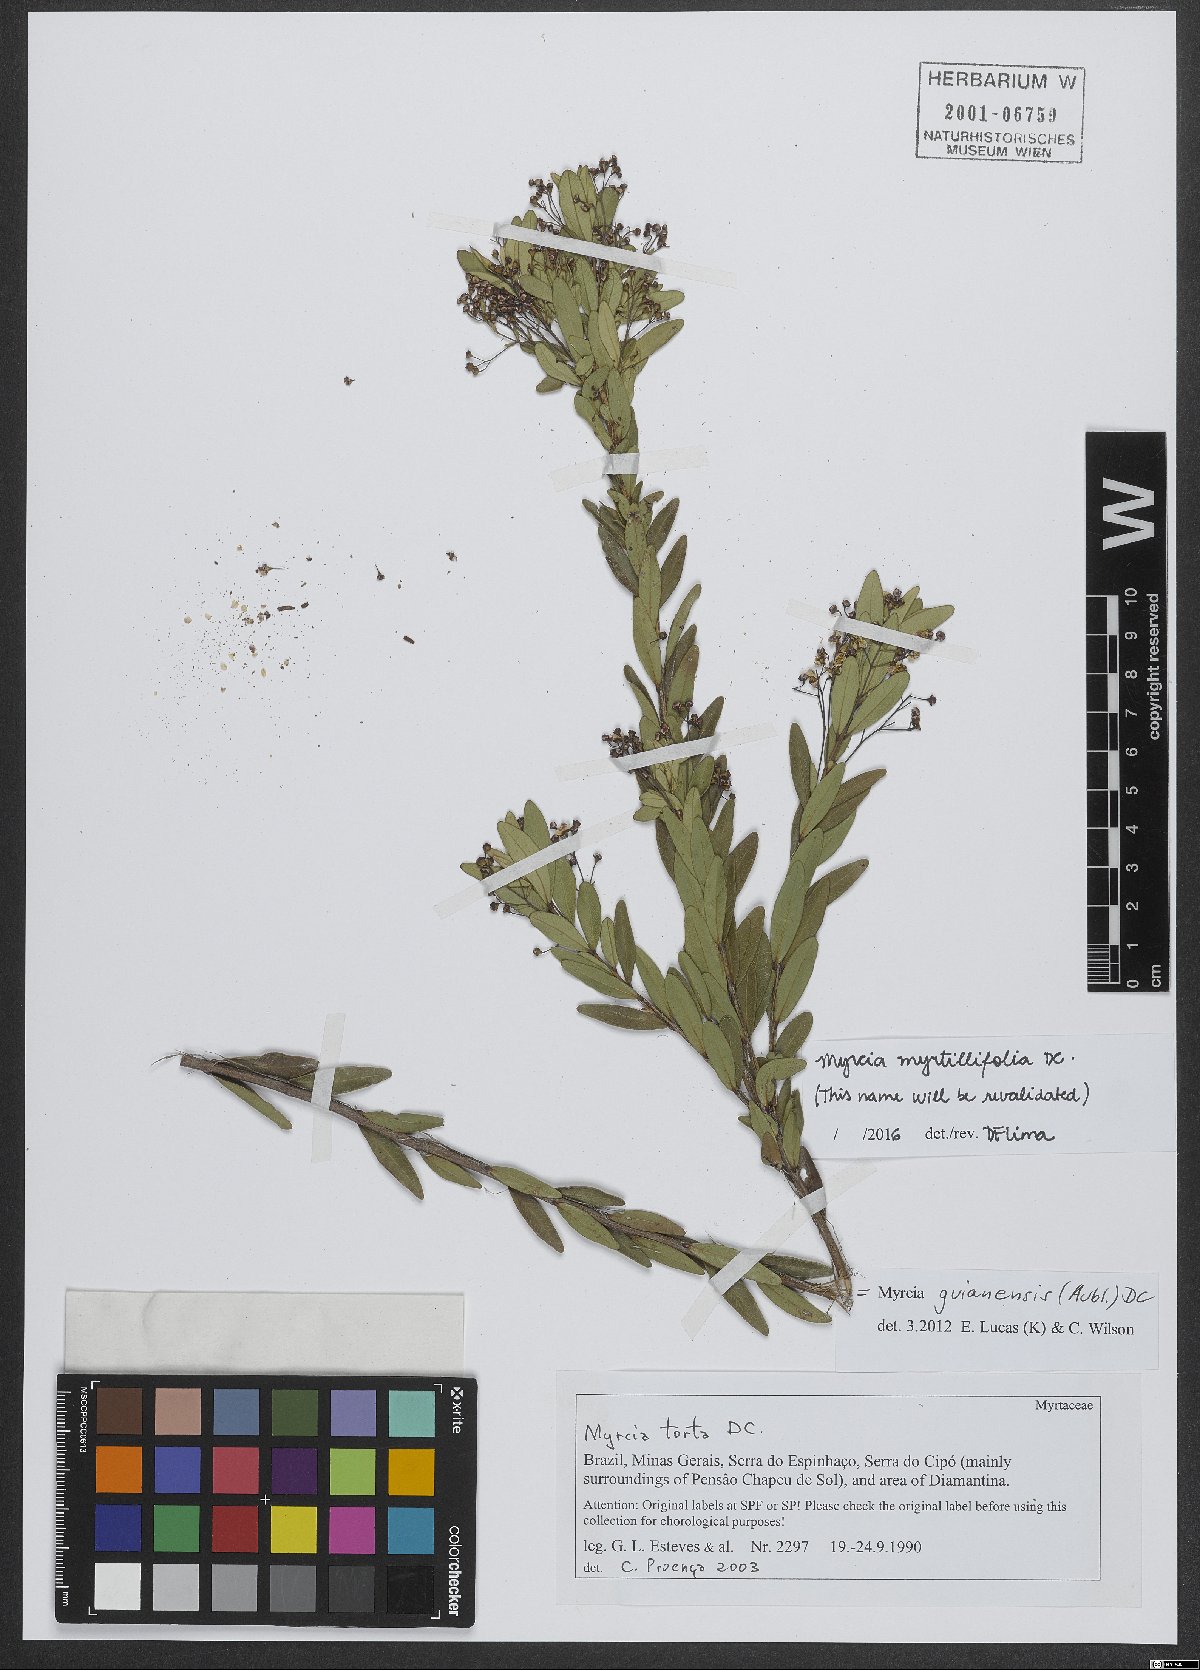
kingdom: Plantae
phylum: Tracheophyta
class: Magnoliopsida
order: Myrtales
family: Myrtaceae
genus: Myrcia
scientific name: Myrcia guianensis
